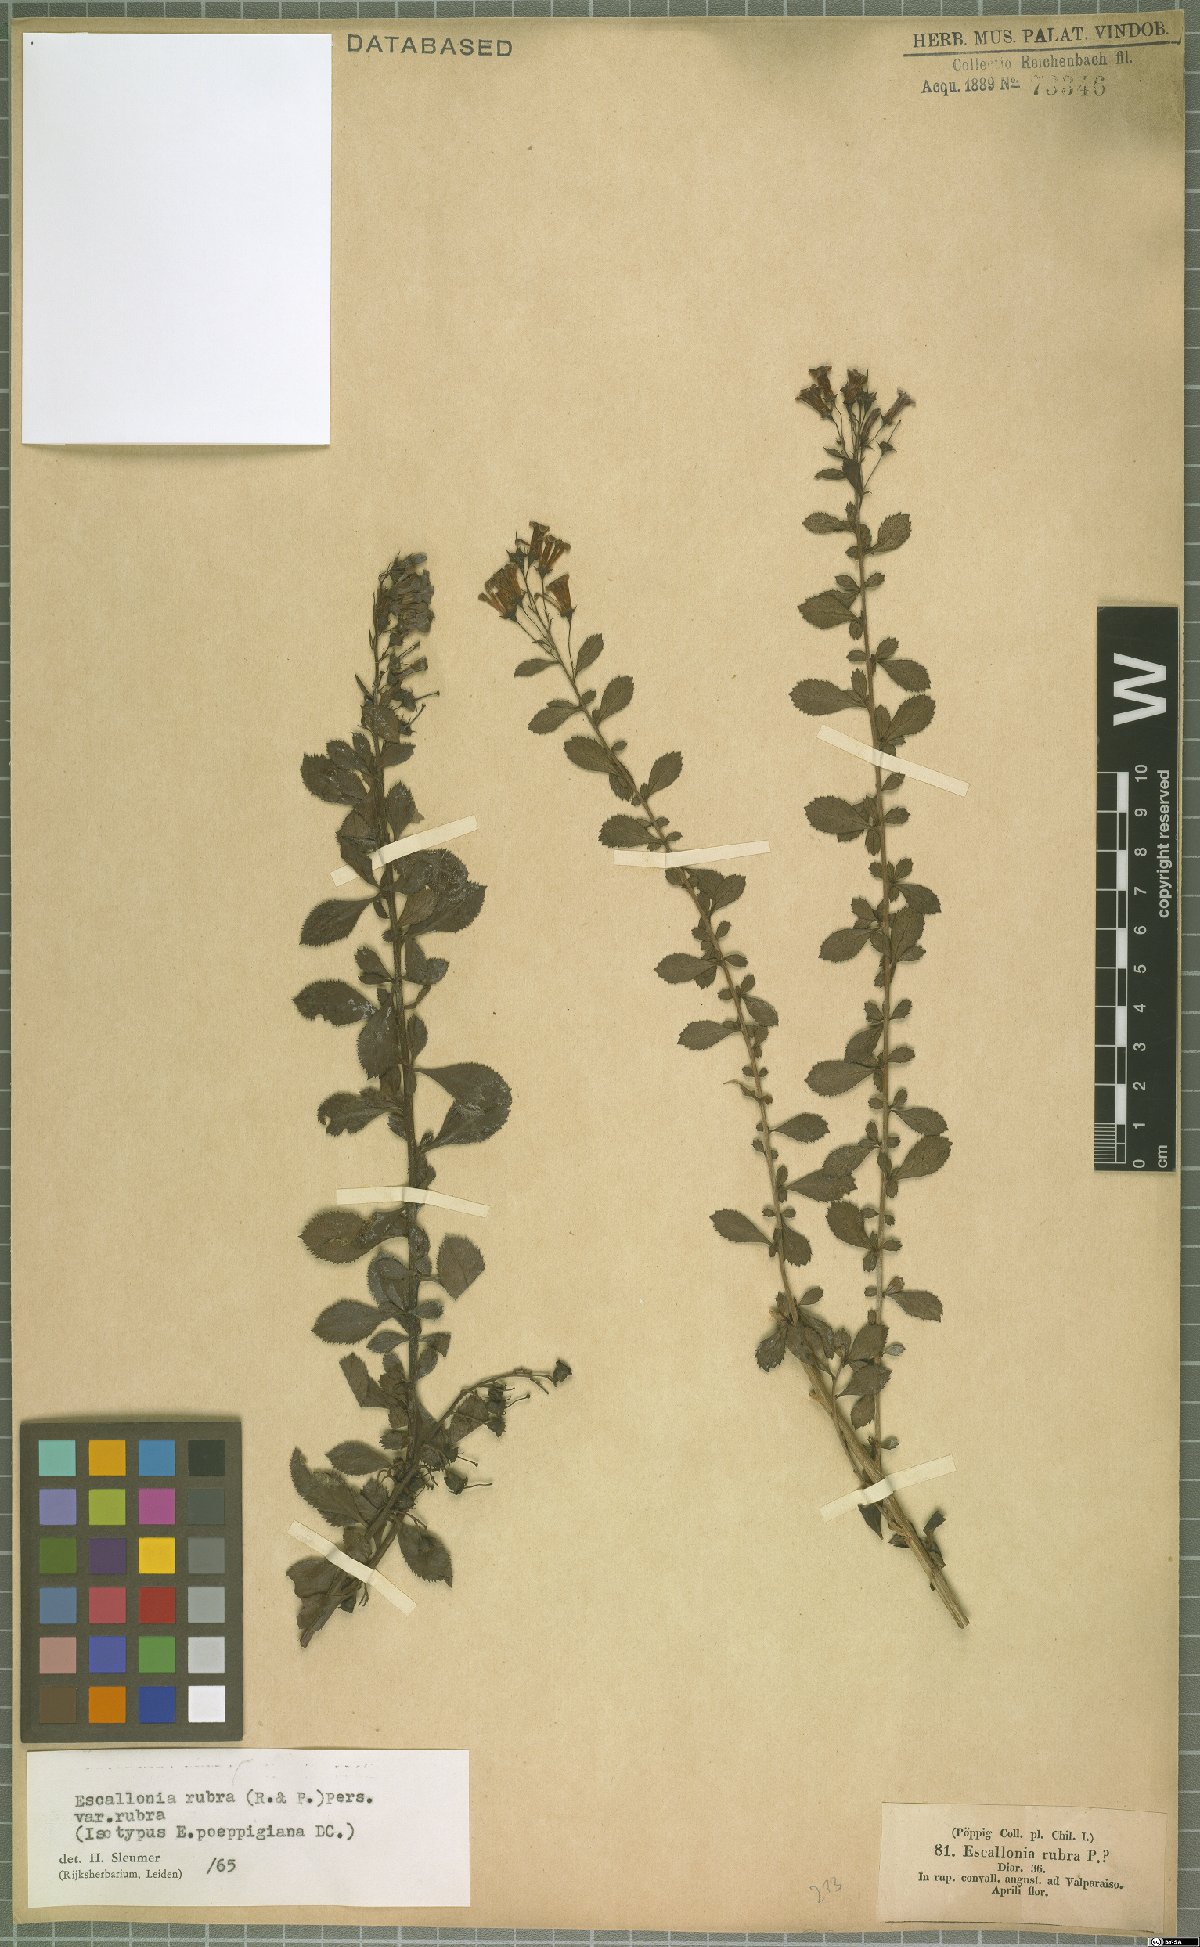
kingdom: Plantae
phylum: Tracheophyta
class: Magnoliopsida
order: Escalloniales
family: Escalloniaceae
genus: Escallonia
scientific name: Escallonia rubra
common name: Redclaws
